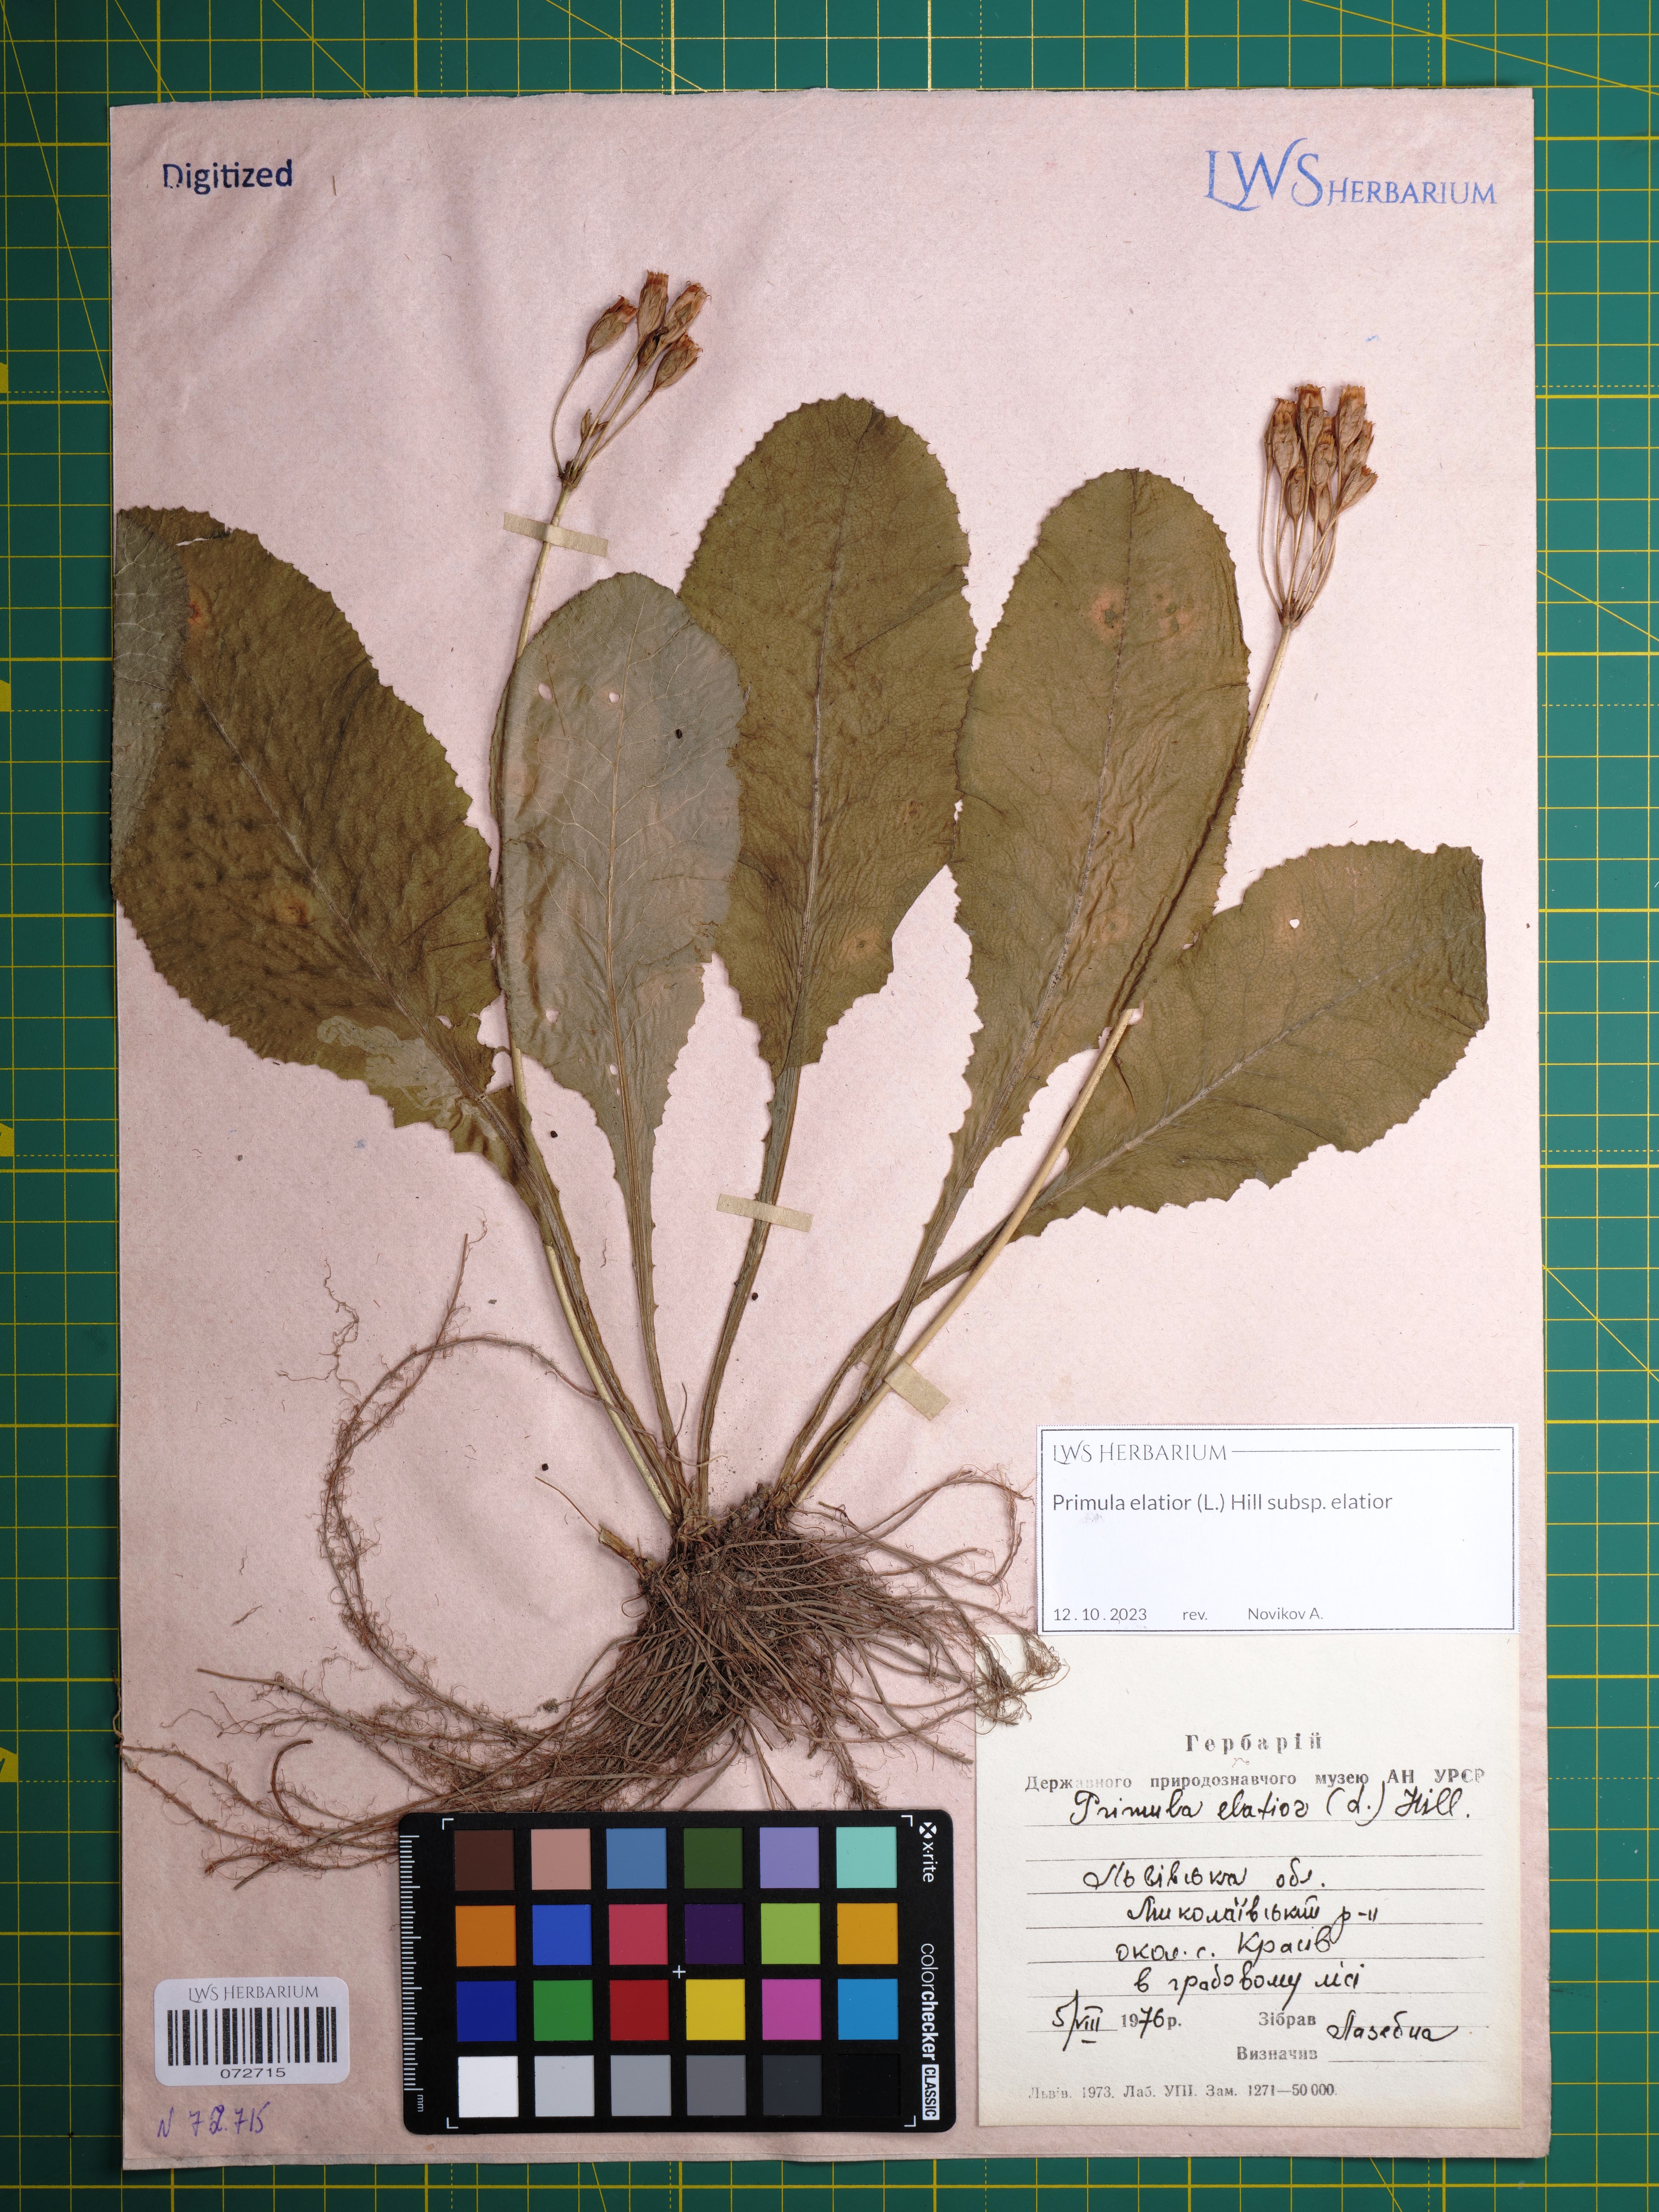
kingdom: Plantae
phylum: Tracheophyta
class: Magnoliopsida
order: Ericales
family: Primulaceae
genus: Primula
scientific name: Primula elatior
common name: Oxlip
